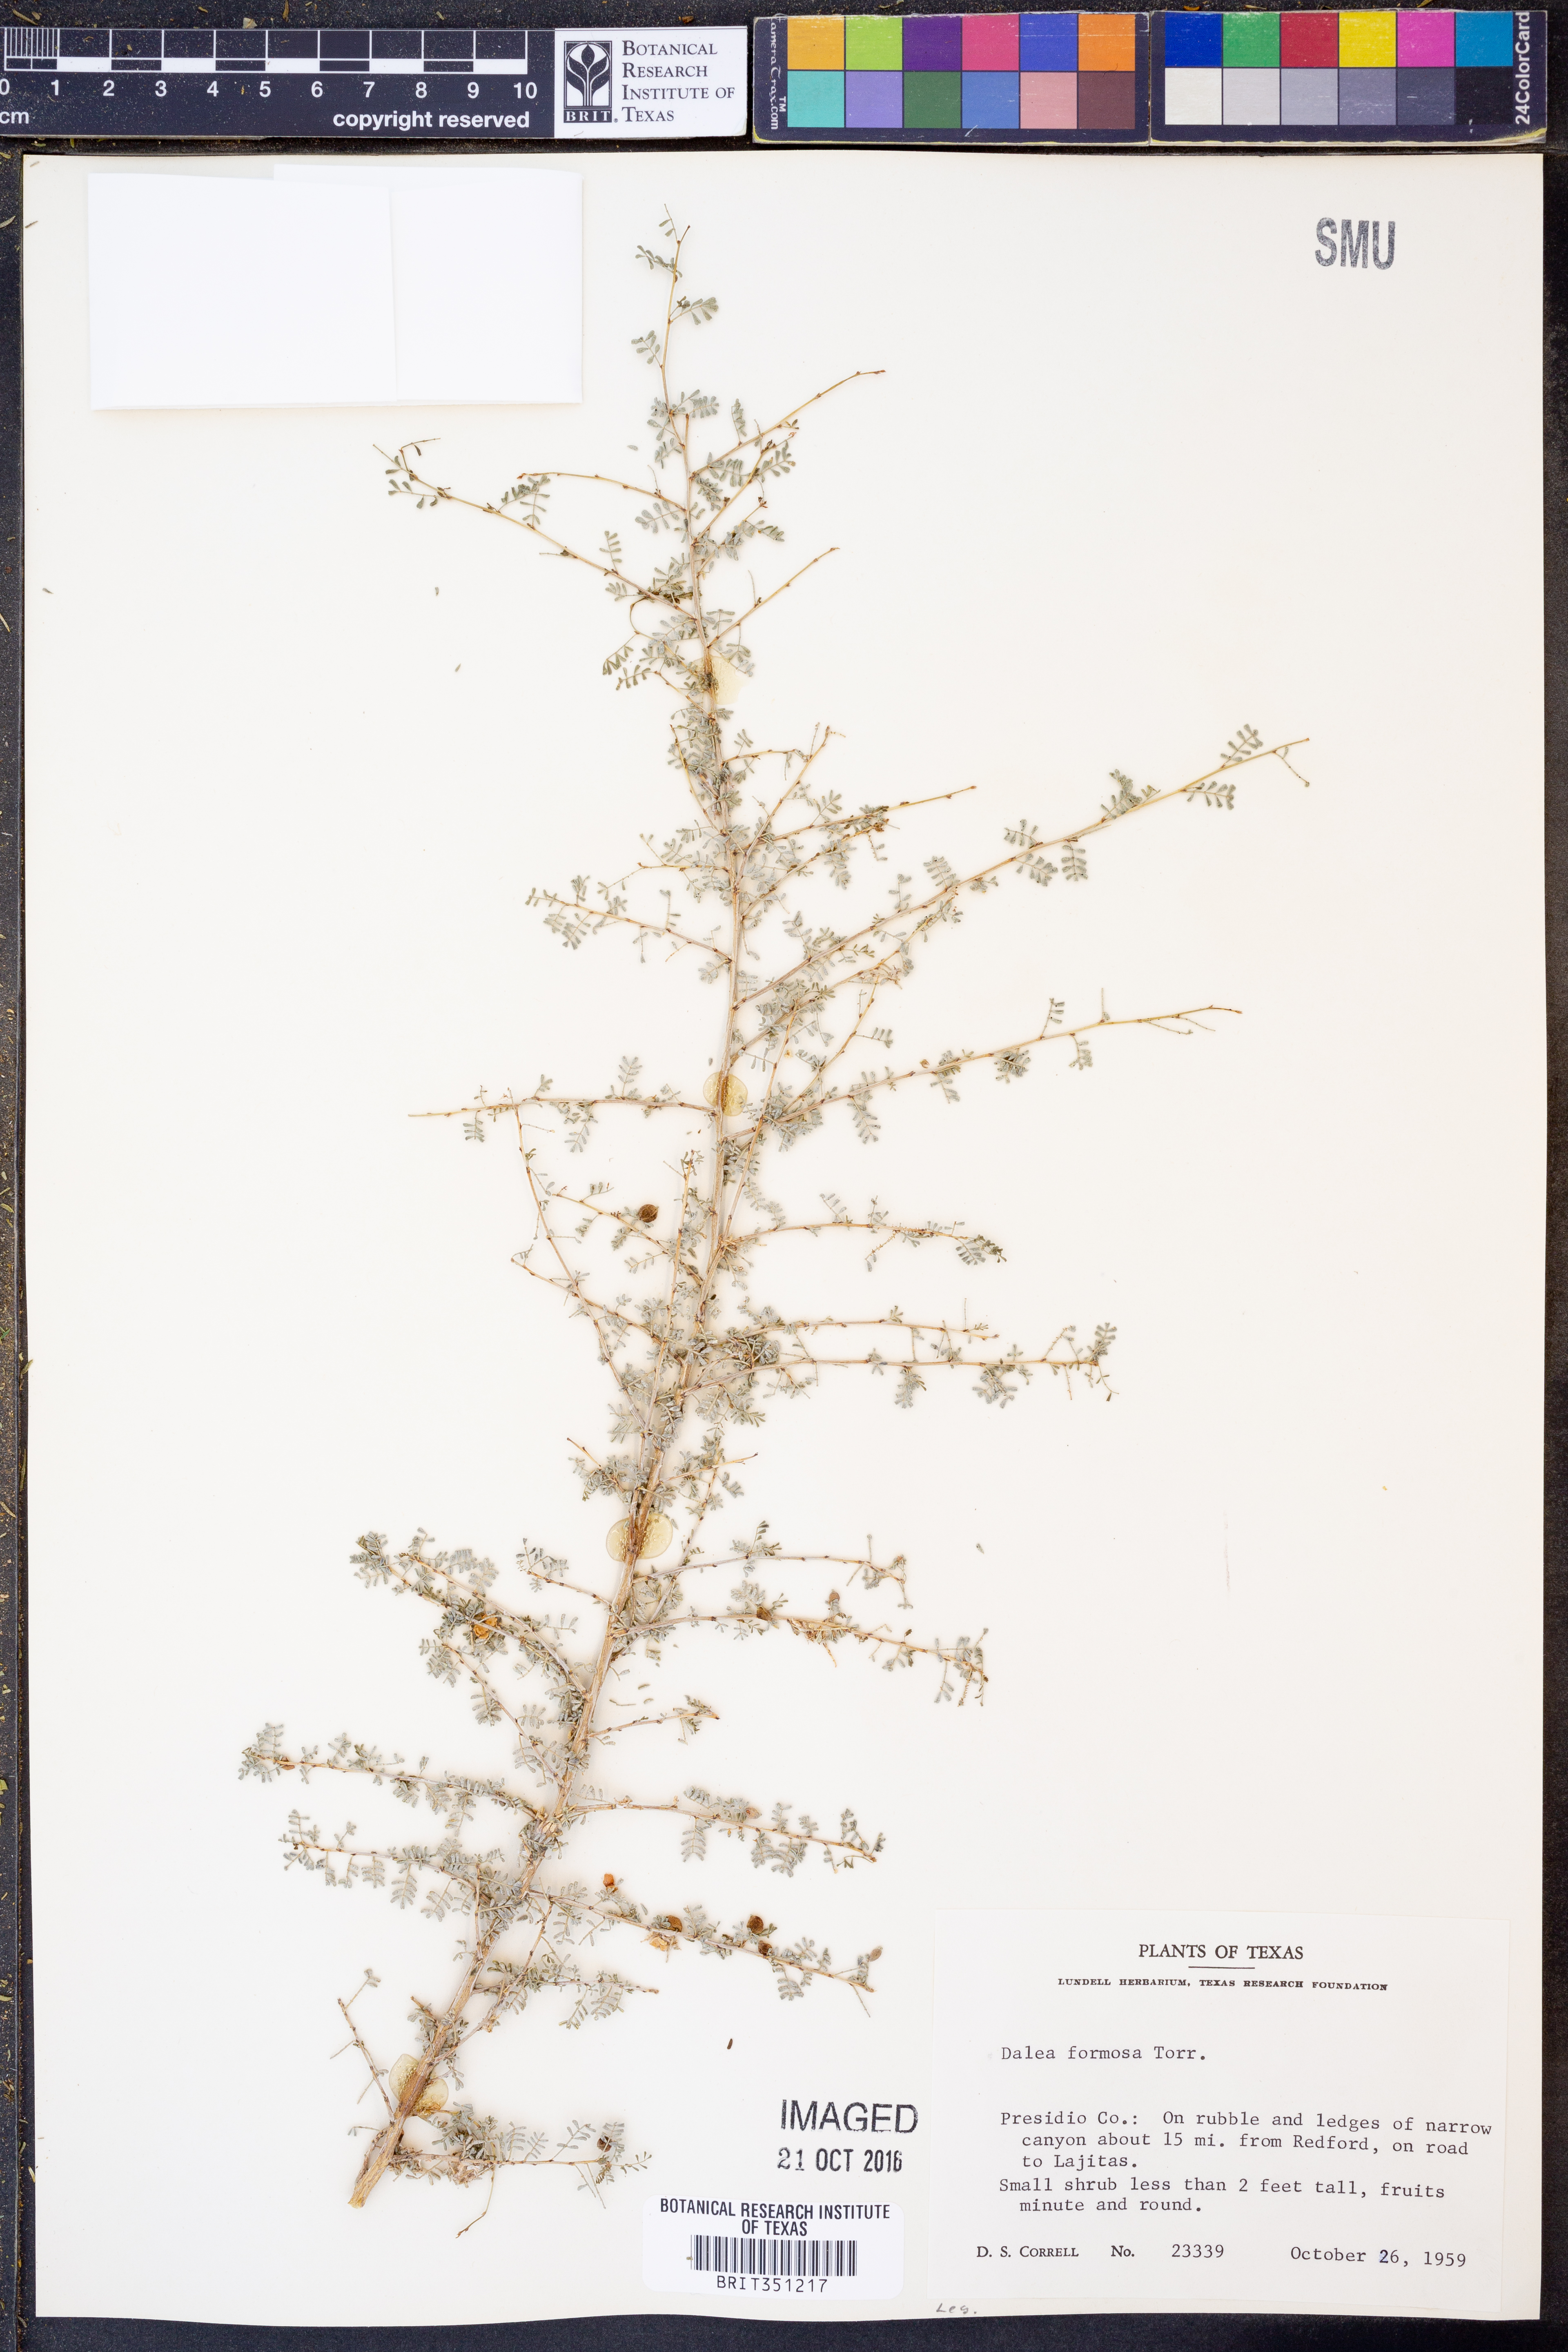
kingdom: Plantae
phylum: Tracheophyta
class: Magnoliopsida
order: Fabales
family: Fabaceae
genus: Dalea
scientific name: Dalea formosa
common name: Feather-plume dalea
